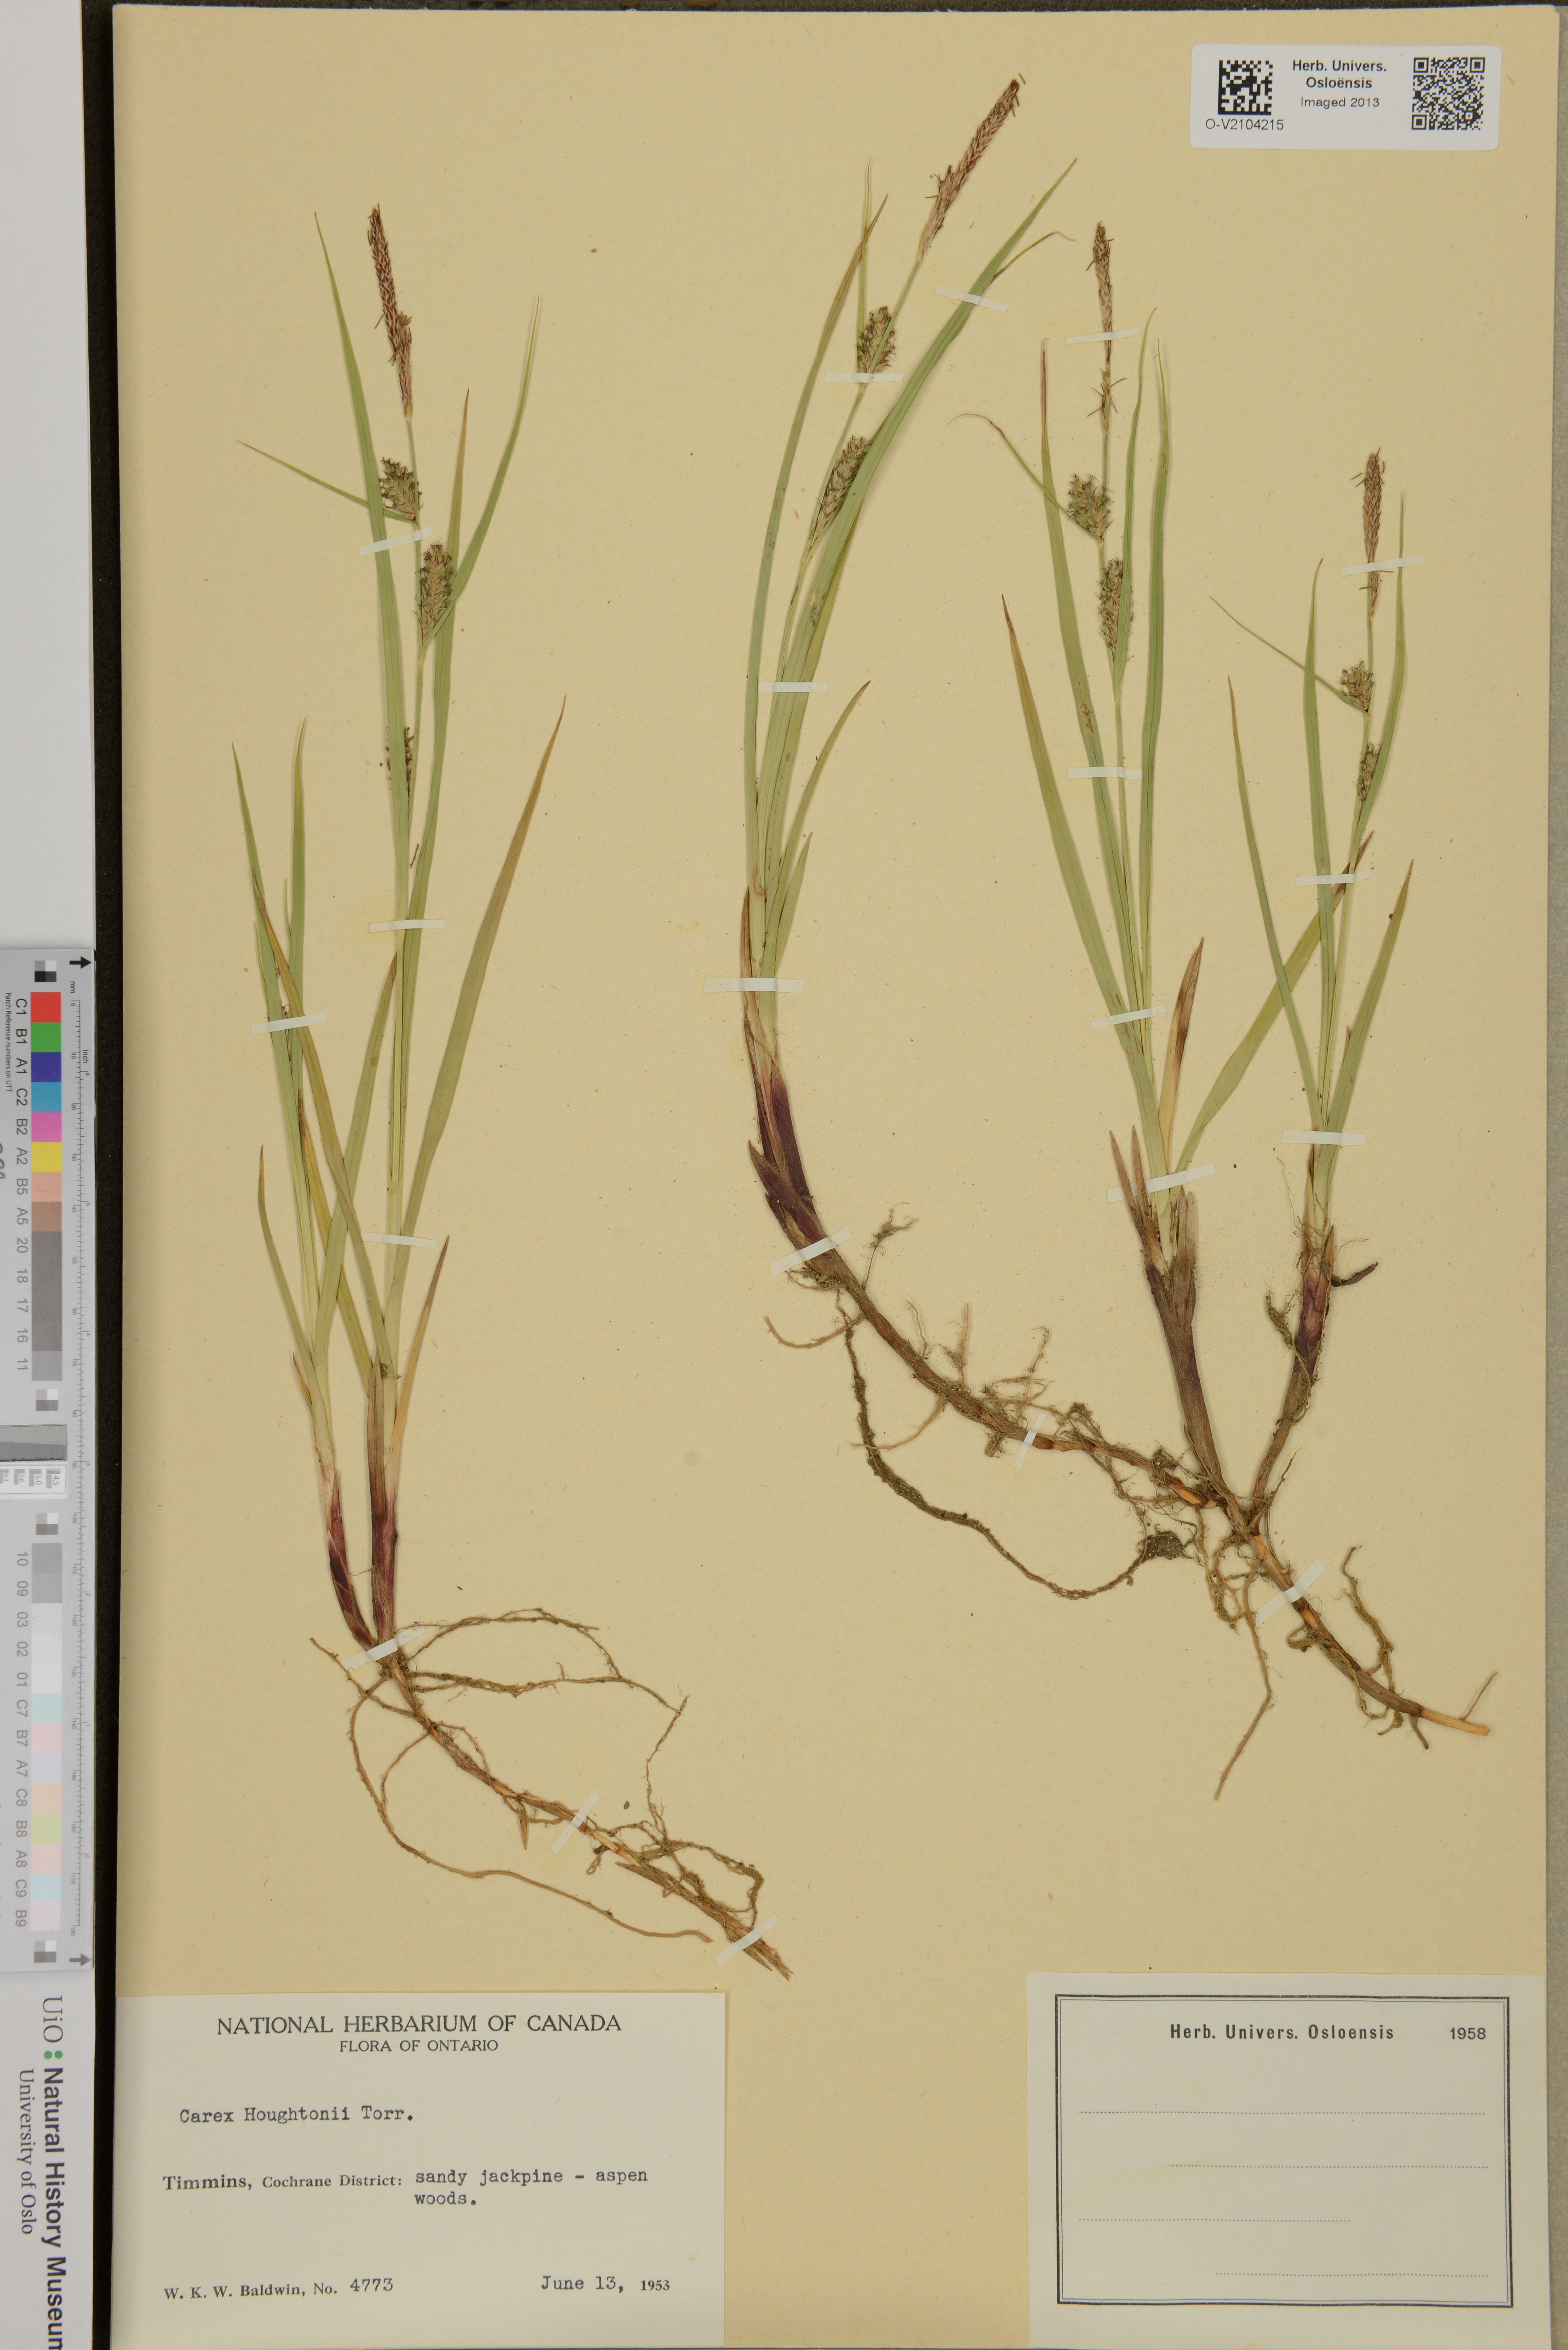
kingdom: Plantae
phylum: Tracheophyta
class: Liliopsida
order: Poales
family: Cyperaceae
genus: Carex
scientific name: Carex houghtoniana
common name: Houghton's sedge
